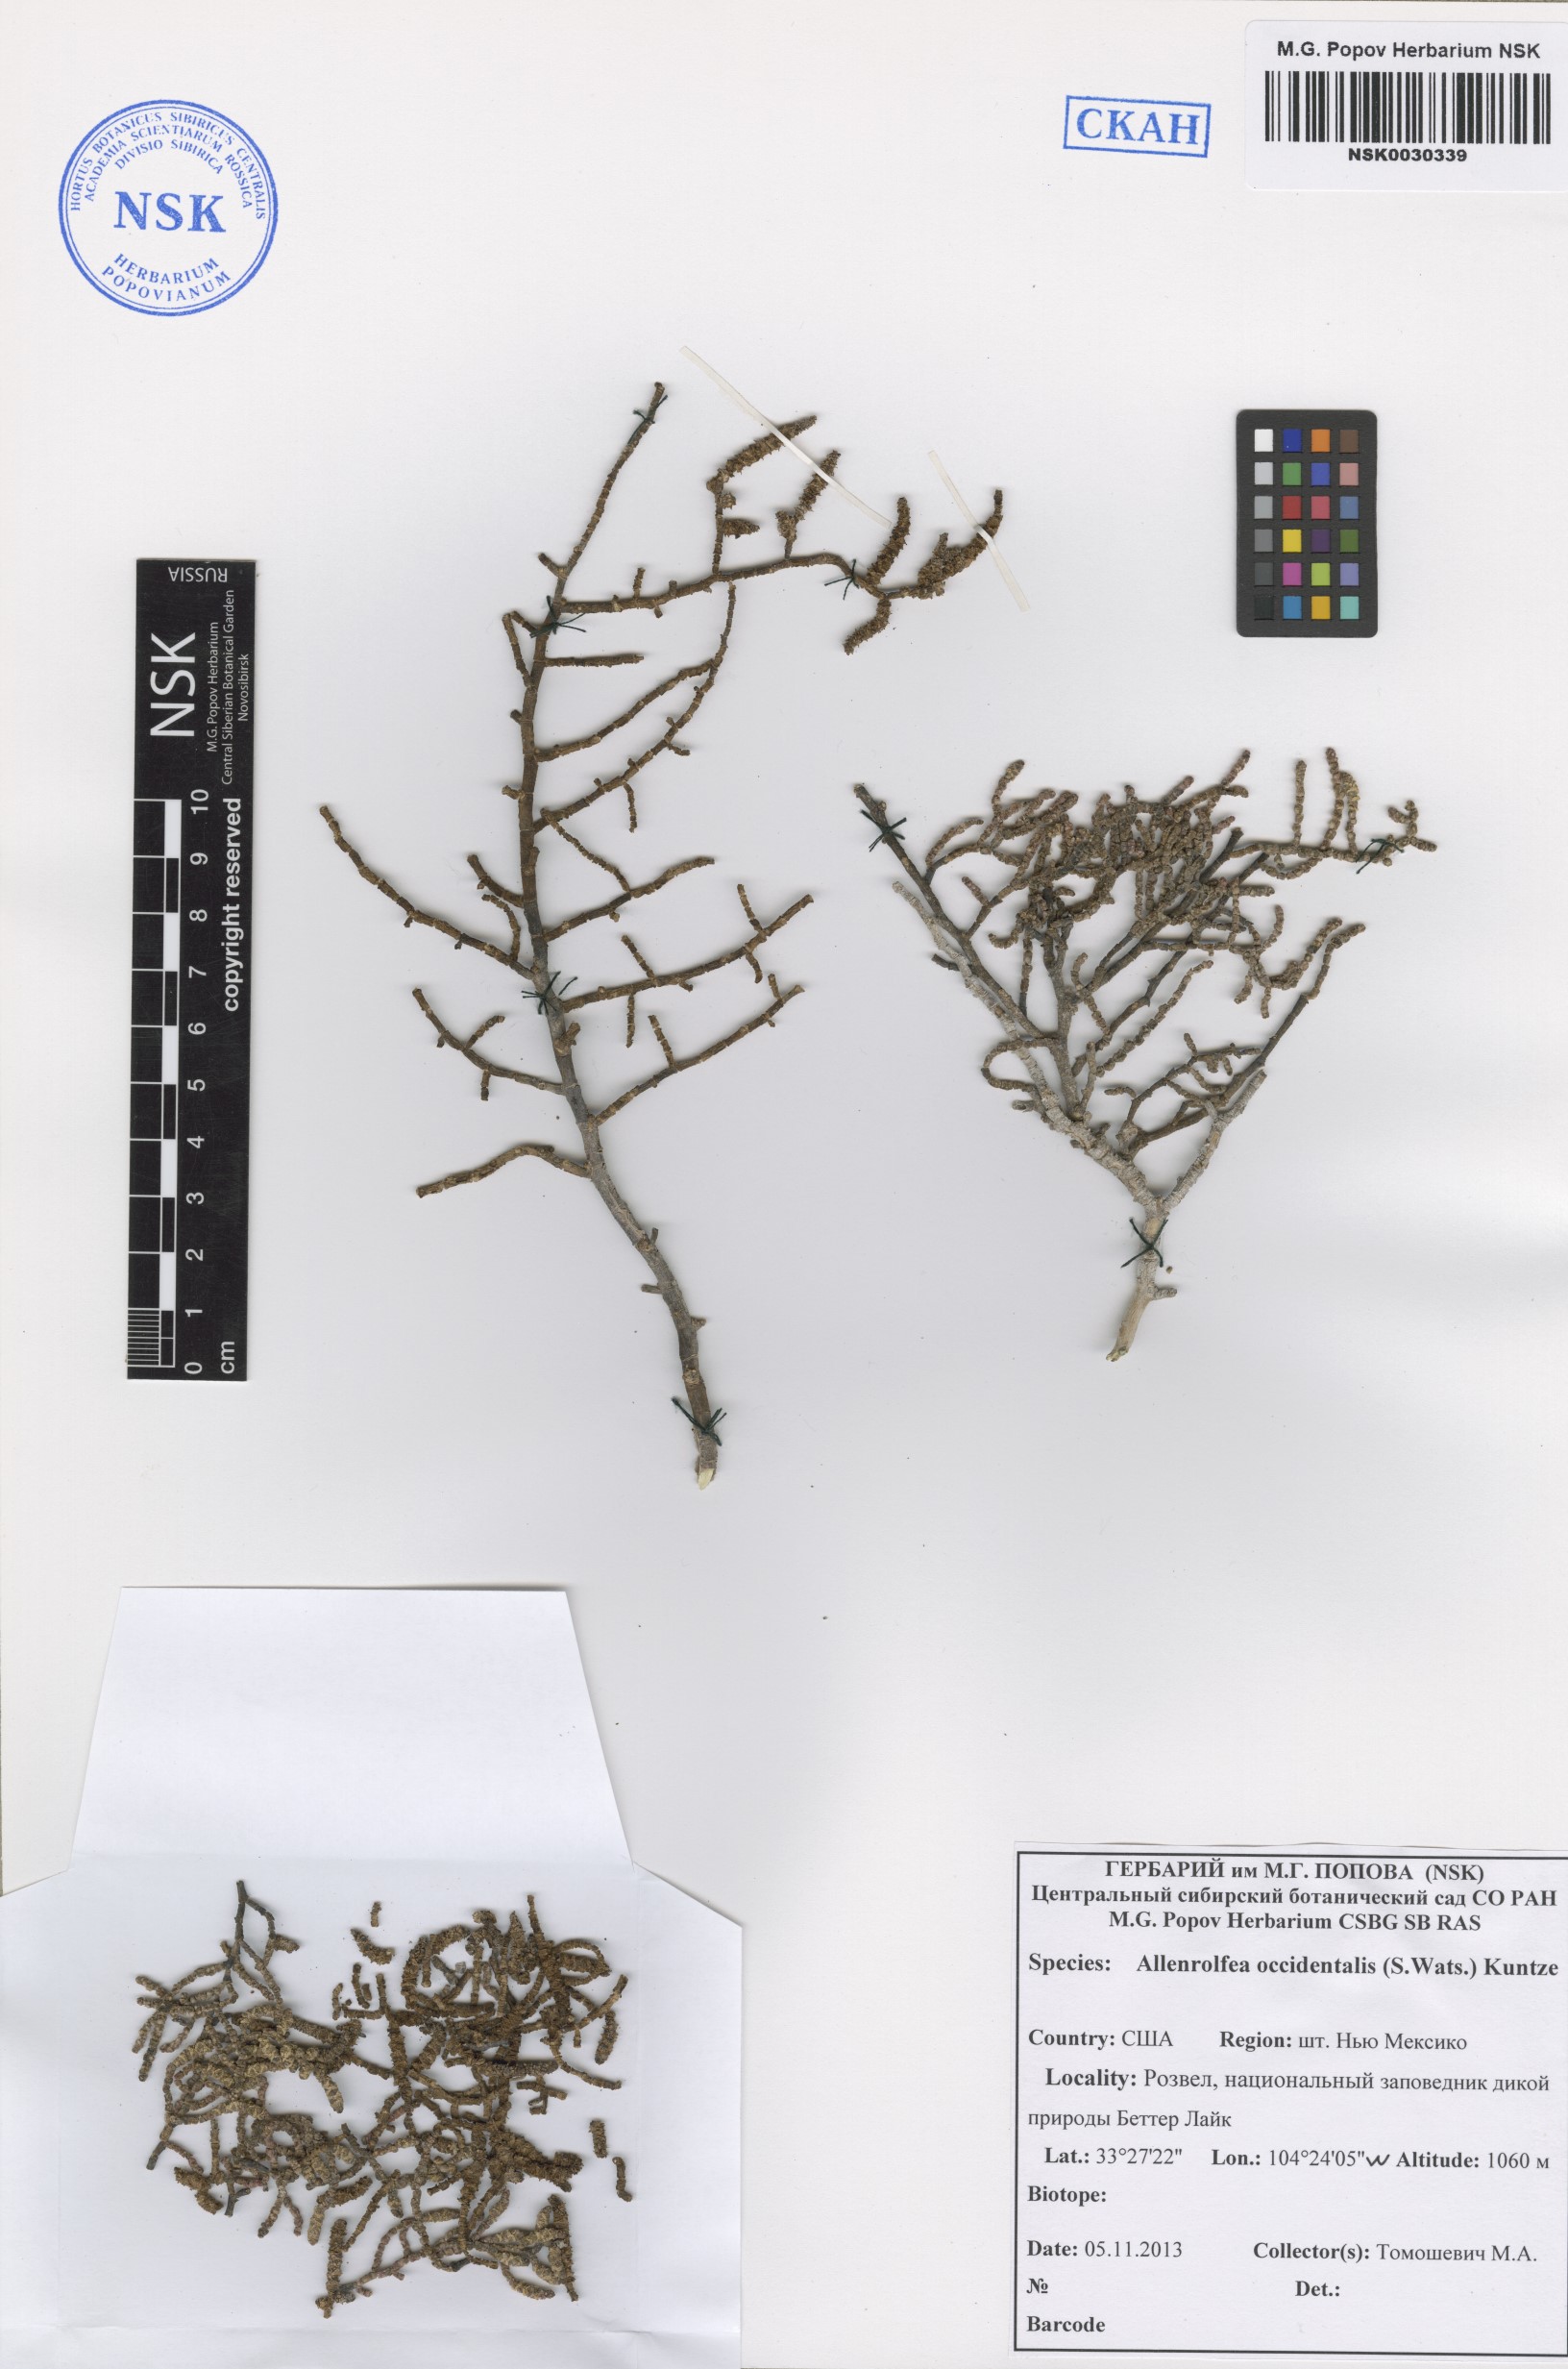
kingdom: Plantae
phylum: Tracheophyta
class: Magnoliopsida
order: Caryophyllales
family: Amaranthaceae
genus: Allenrolfea
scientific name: Allenrolfea occidentalis
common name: Iodine-bush
